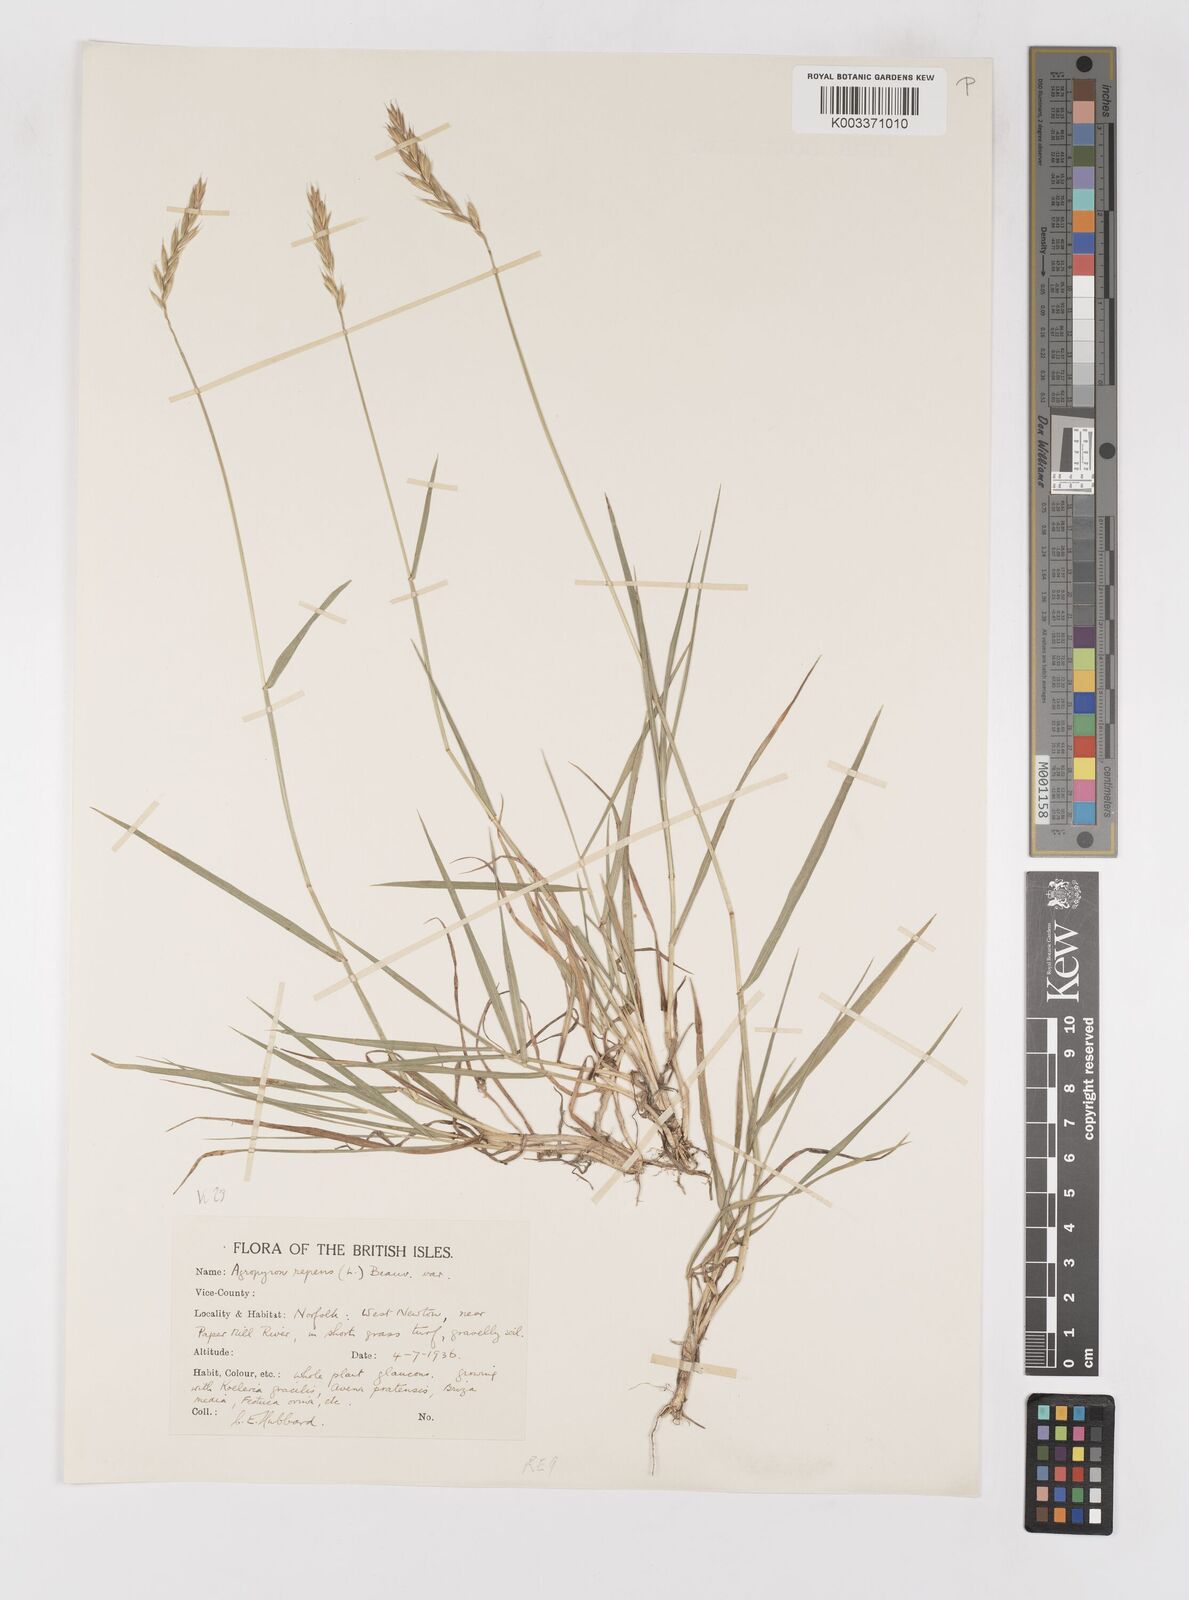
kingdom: Plantae
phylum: Tracheophyta
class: Liliopsida
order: Poales
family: Poaceae
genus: Elymus
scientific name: Elymus repens
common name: Quackgrass
